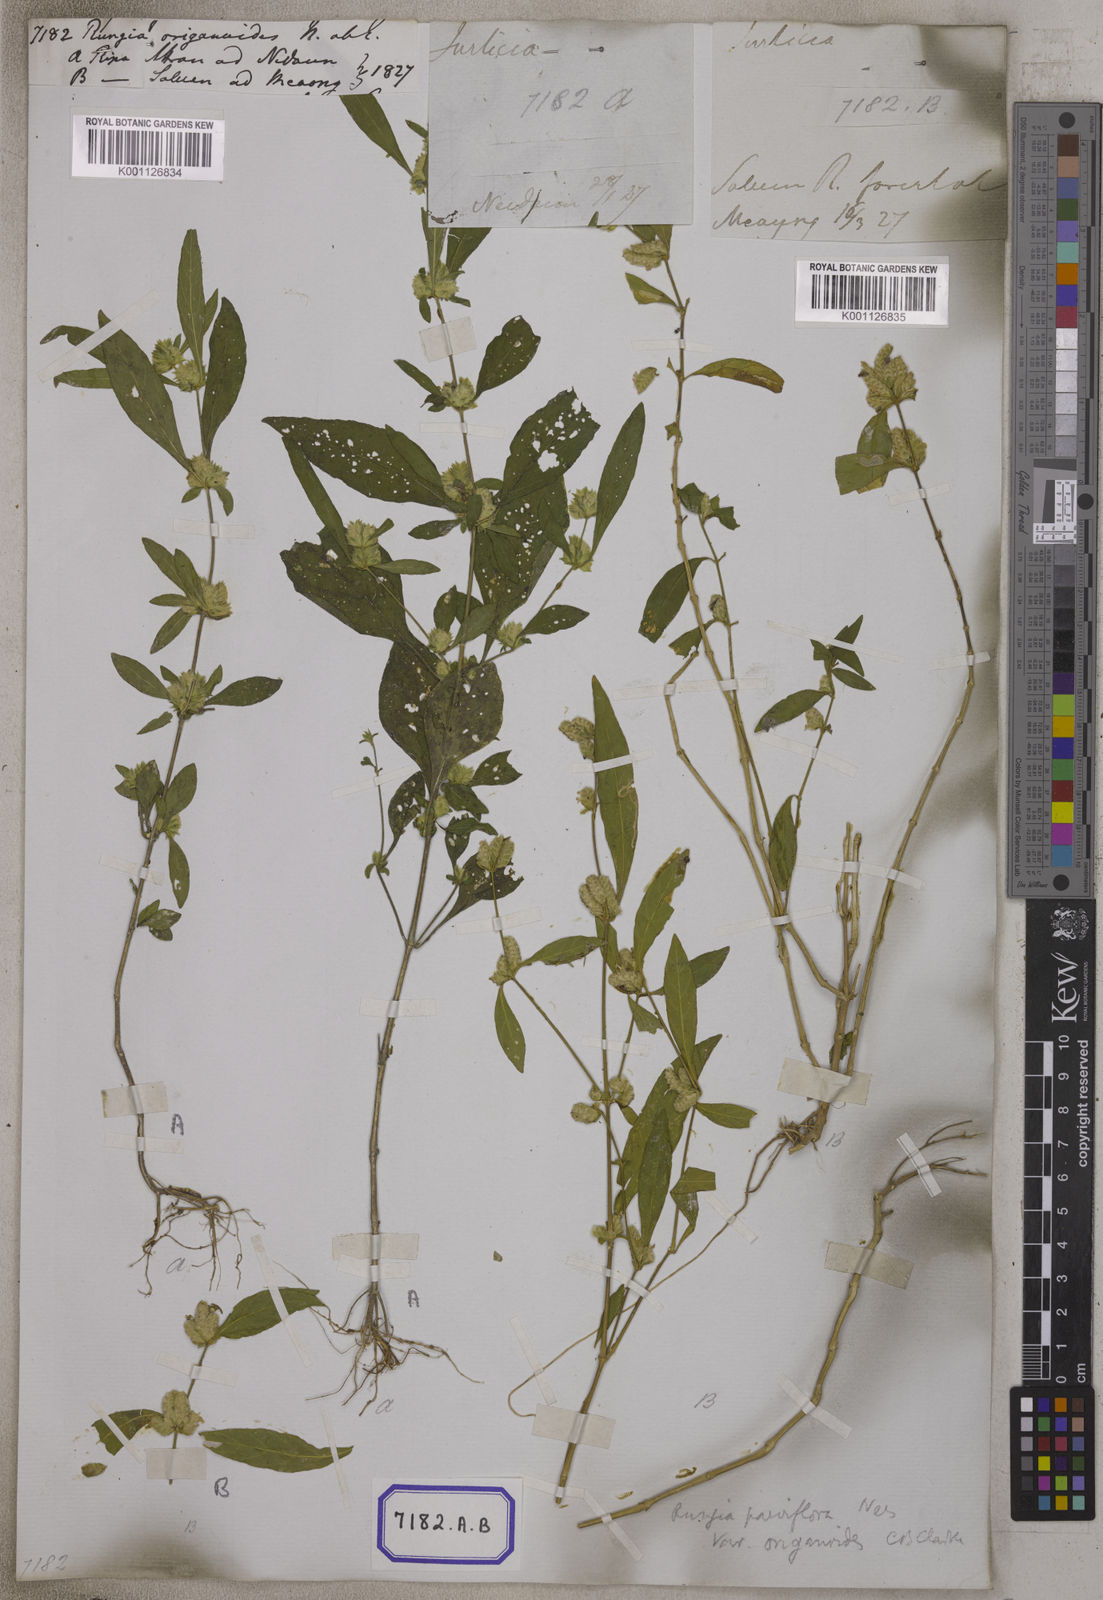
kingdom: Plantae
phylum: Tracheophyta
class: Magnoliopsida
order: Lamiales
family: Acanthaceae
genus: Rungia
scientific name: Rungia pectinata
